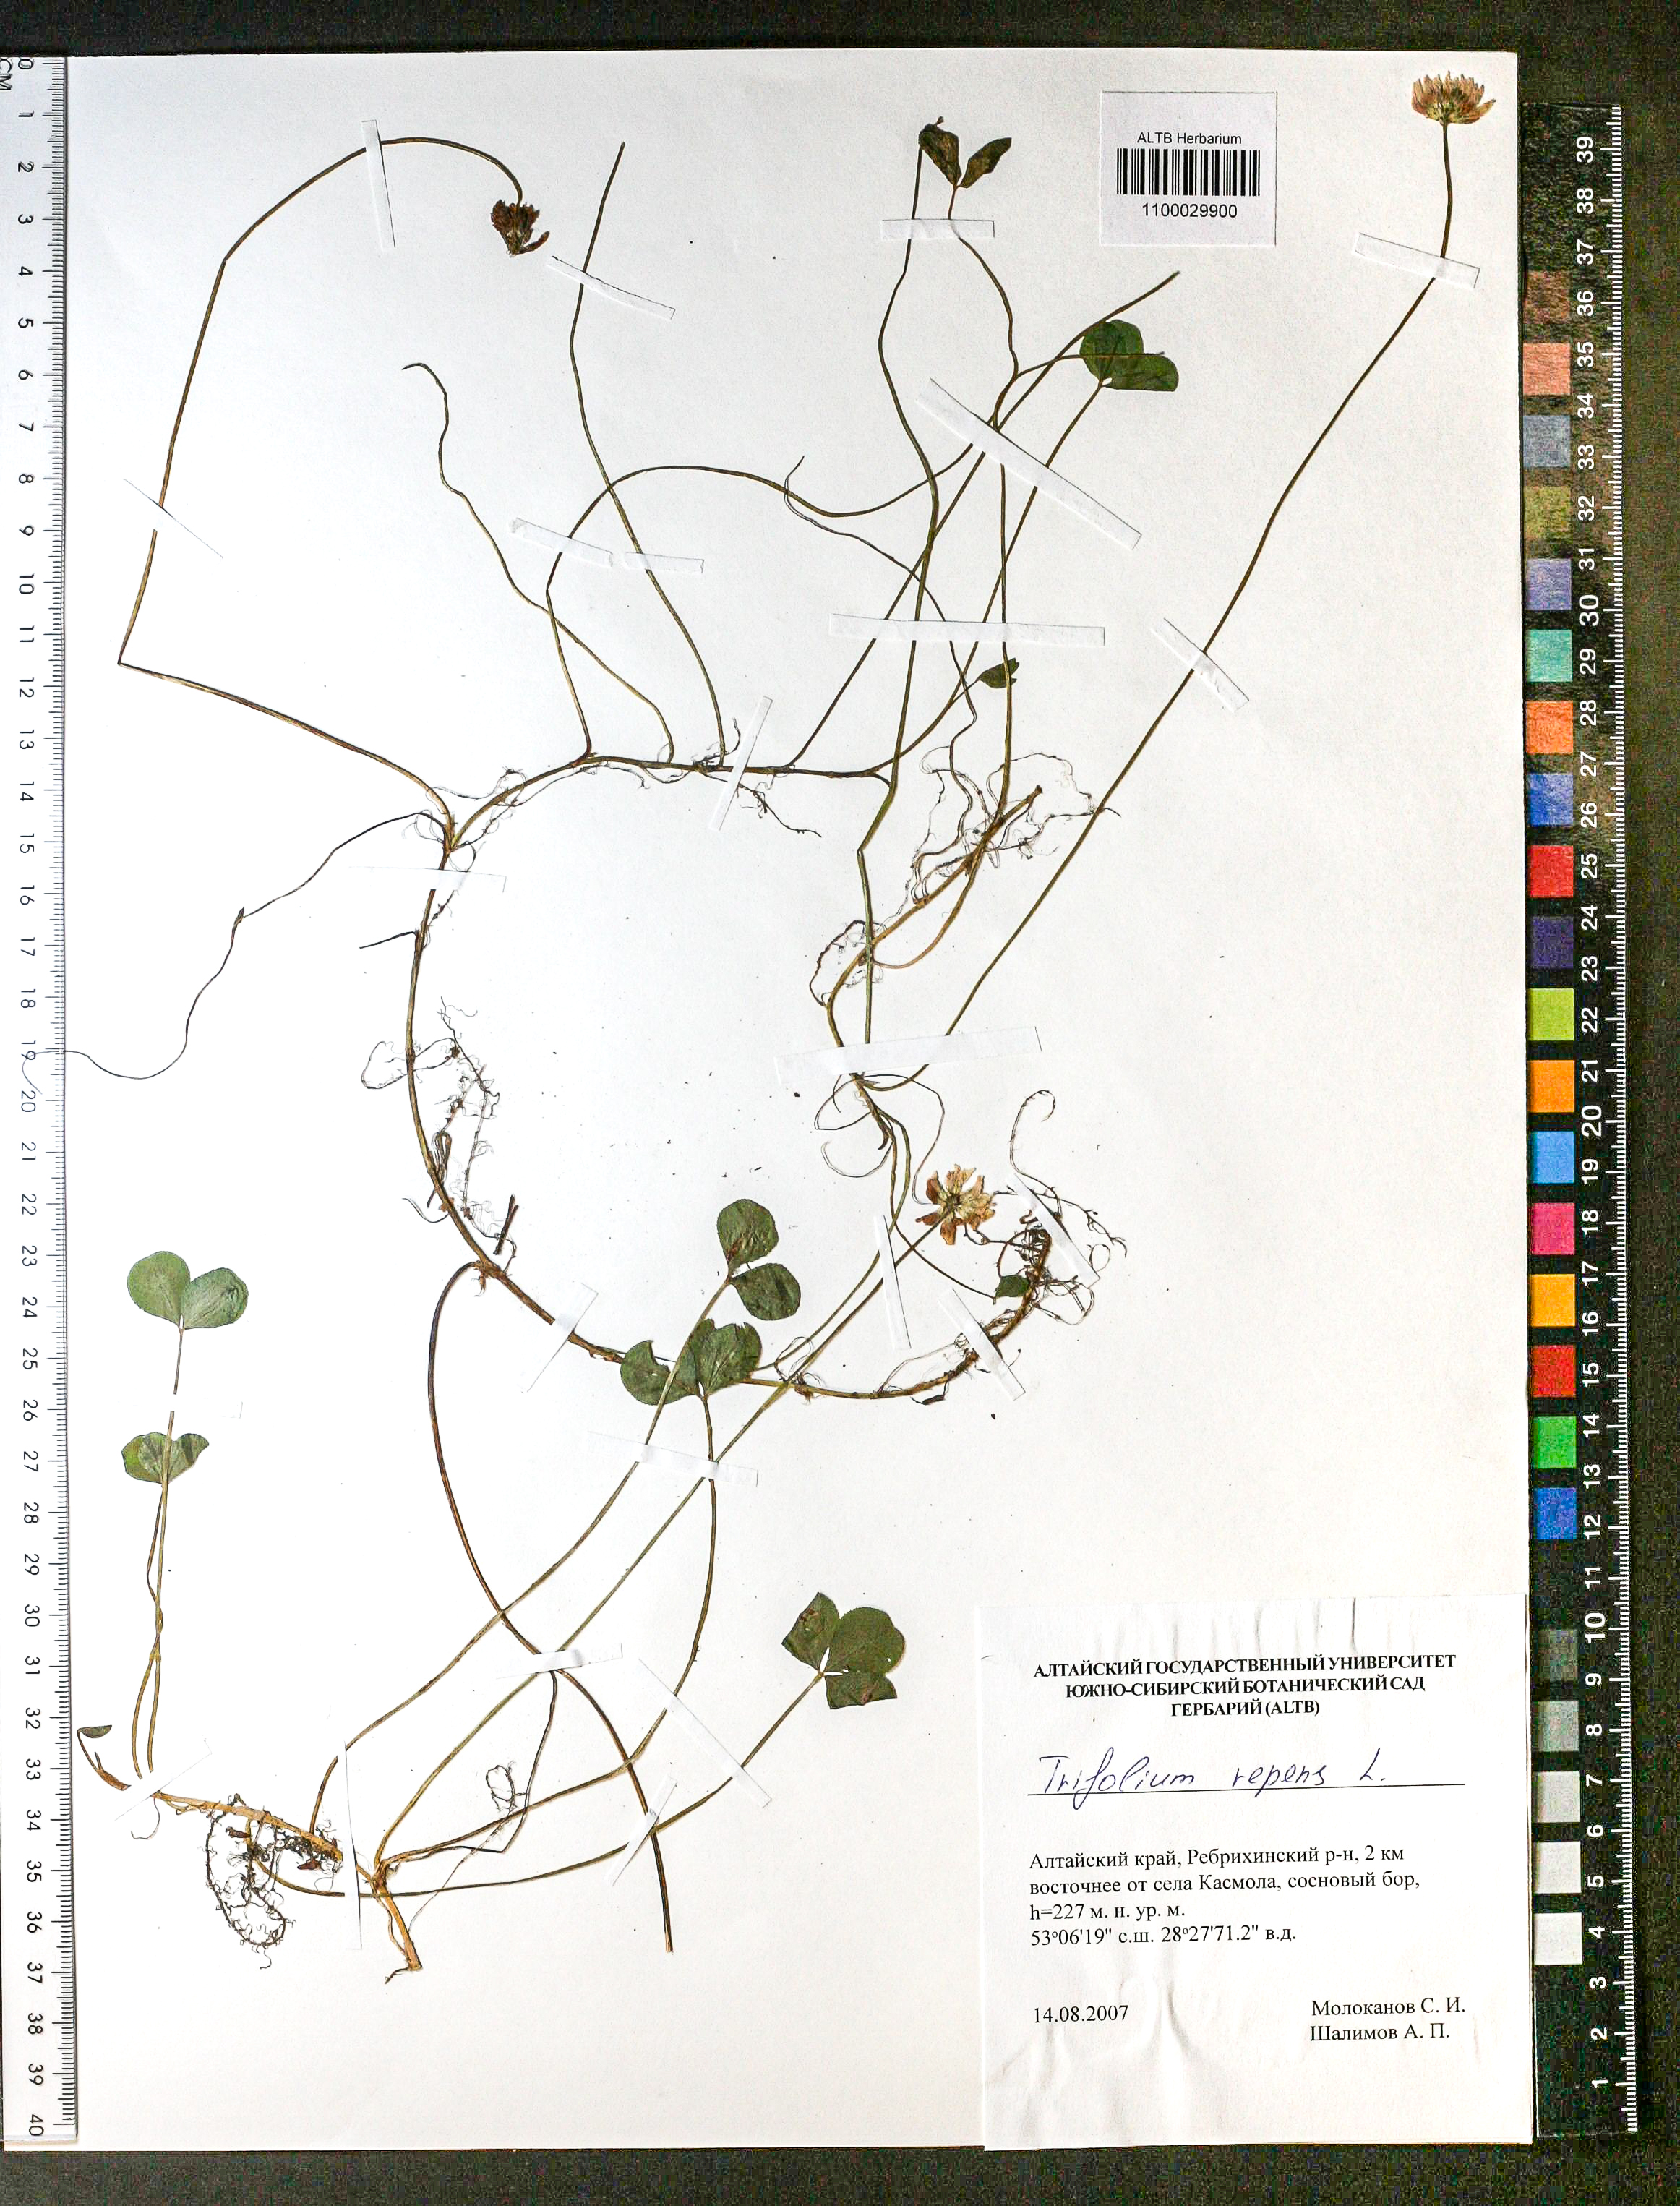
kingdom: Plantae
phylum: Tracheophyta
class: Magnoliopsida
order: Fabales
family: Fabaceae
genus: Trifolium
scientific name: Trifolium repens
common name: White clover
